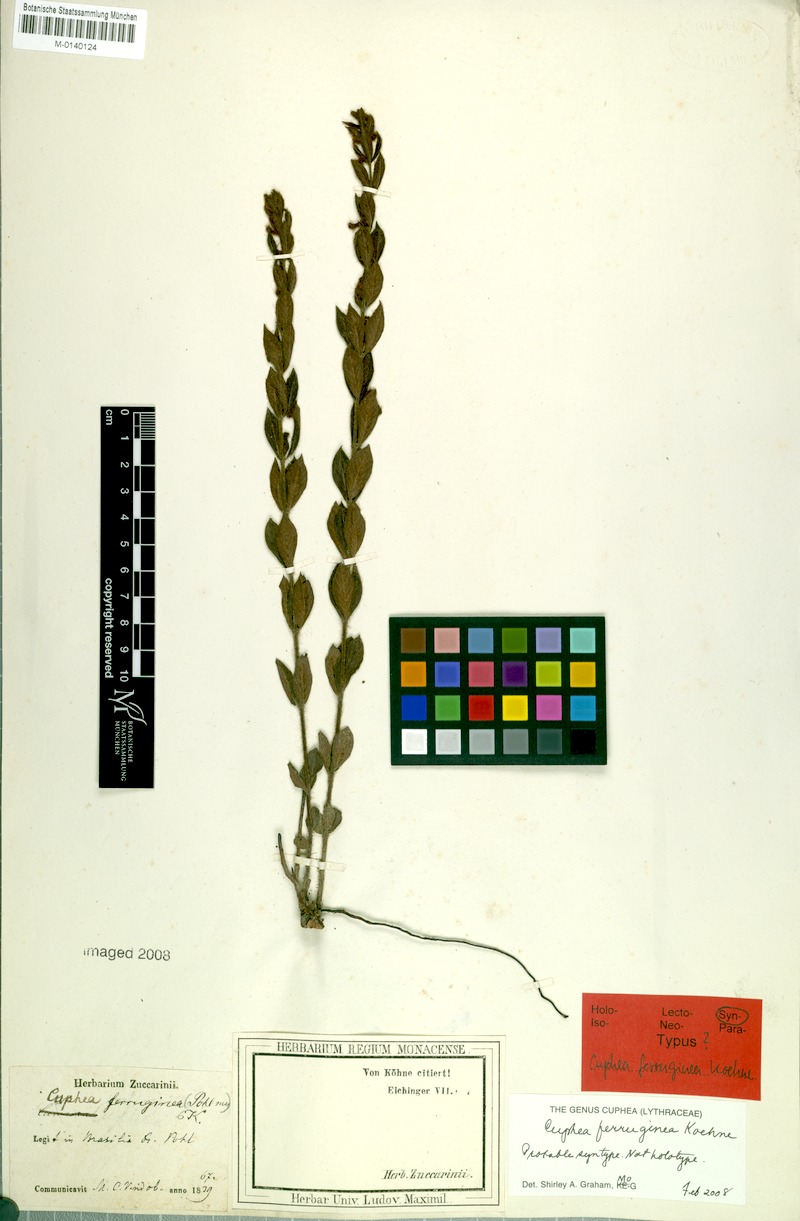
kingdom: Plantae
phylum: Tracheophyta
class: Magnoliopsida
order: Myrtales
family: Lythraceae
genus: Cuphea
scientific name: Cuphea ferruginea
